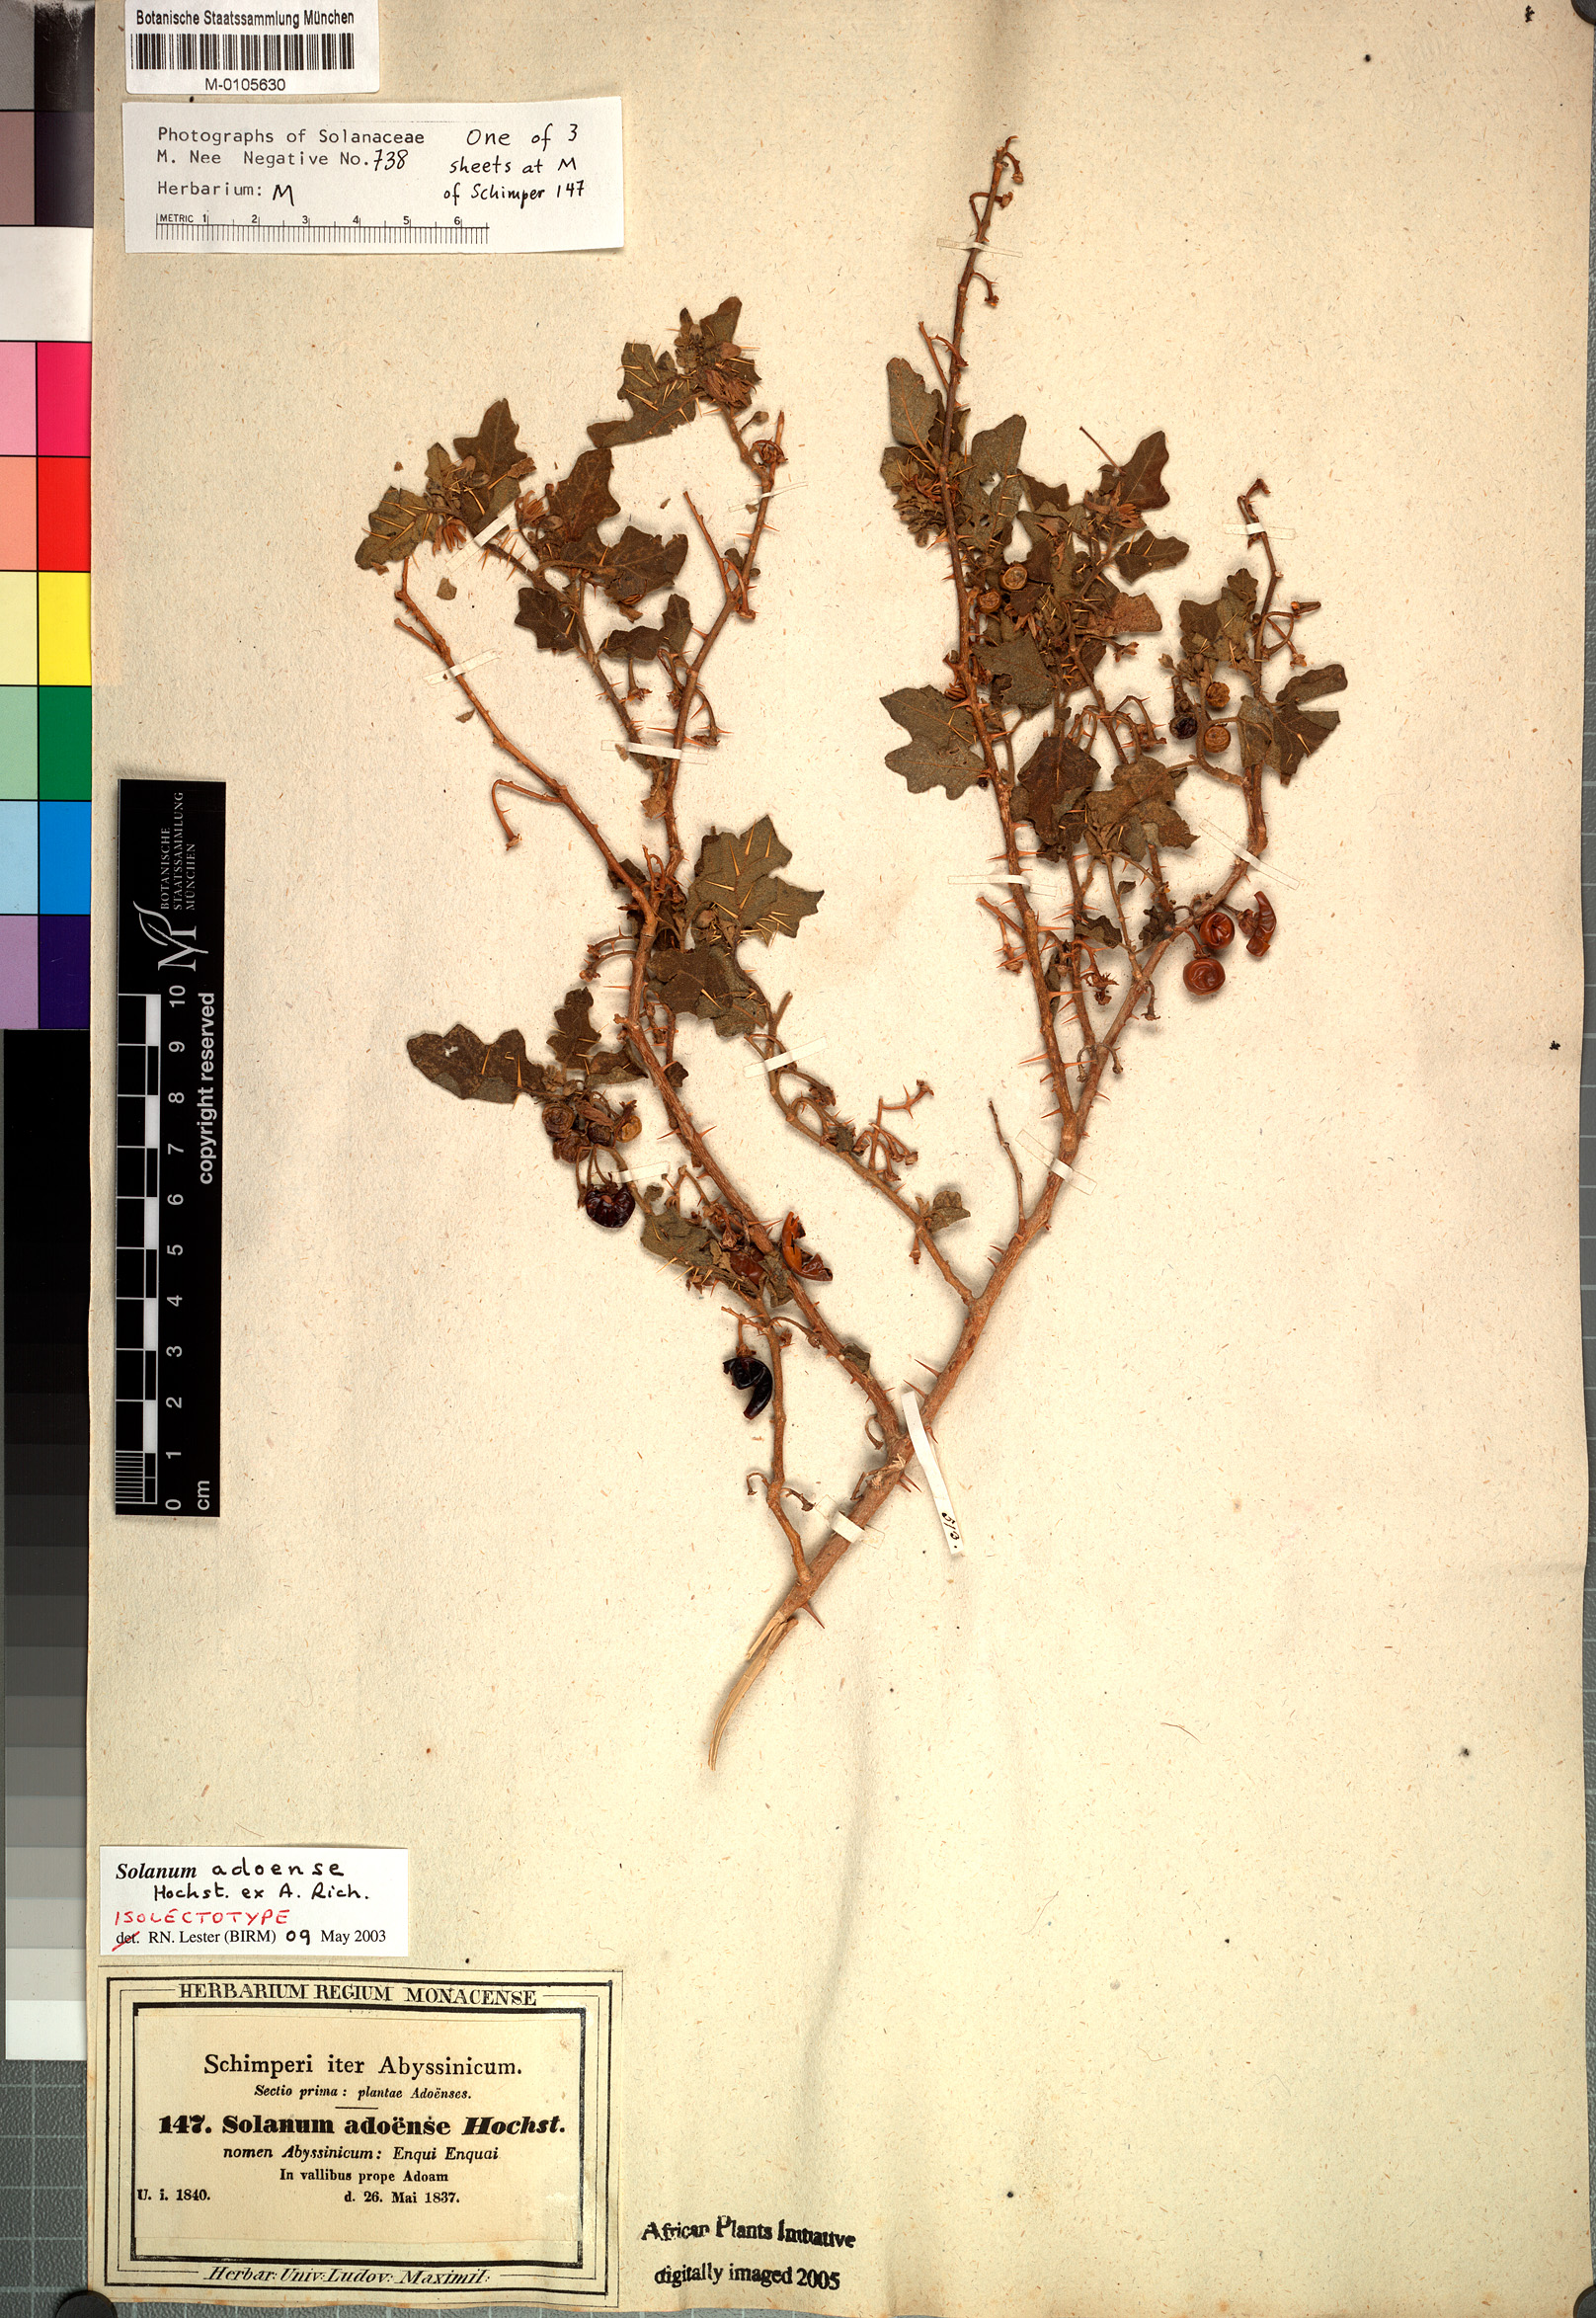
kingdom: Plantae
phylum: Tracheophyta
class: Magnoliopsida
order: Solanales
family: Solanaceae
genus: Solanum
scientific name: Solanum adoense
